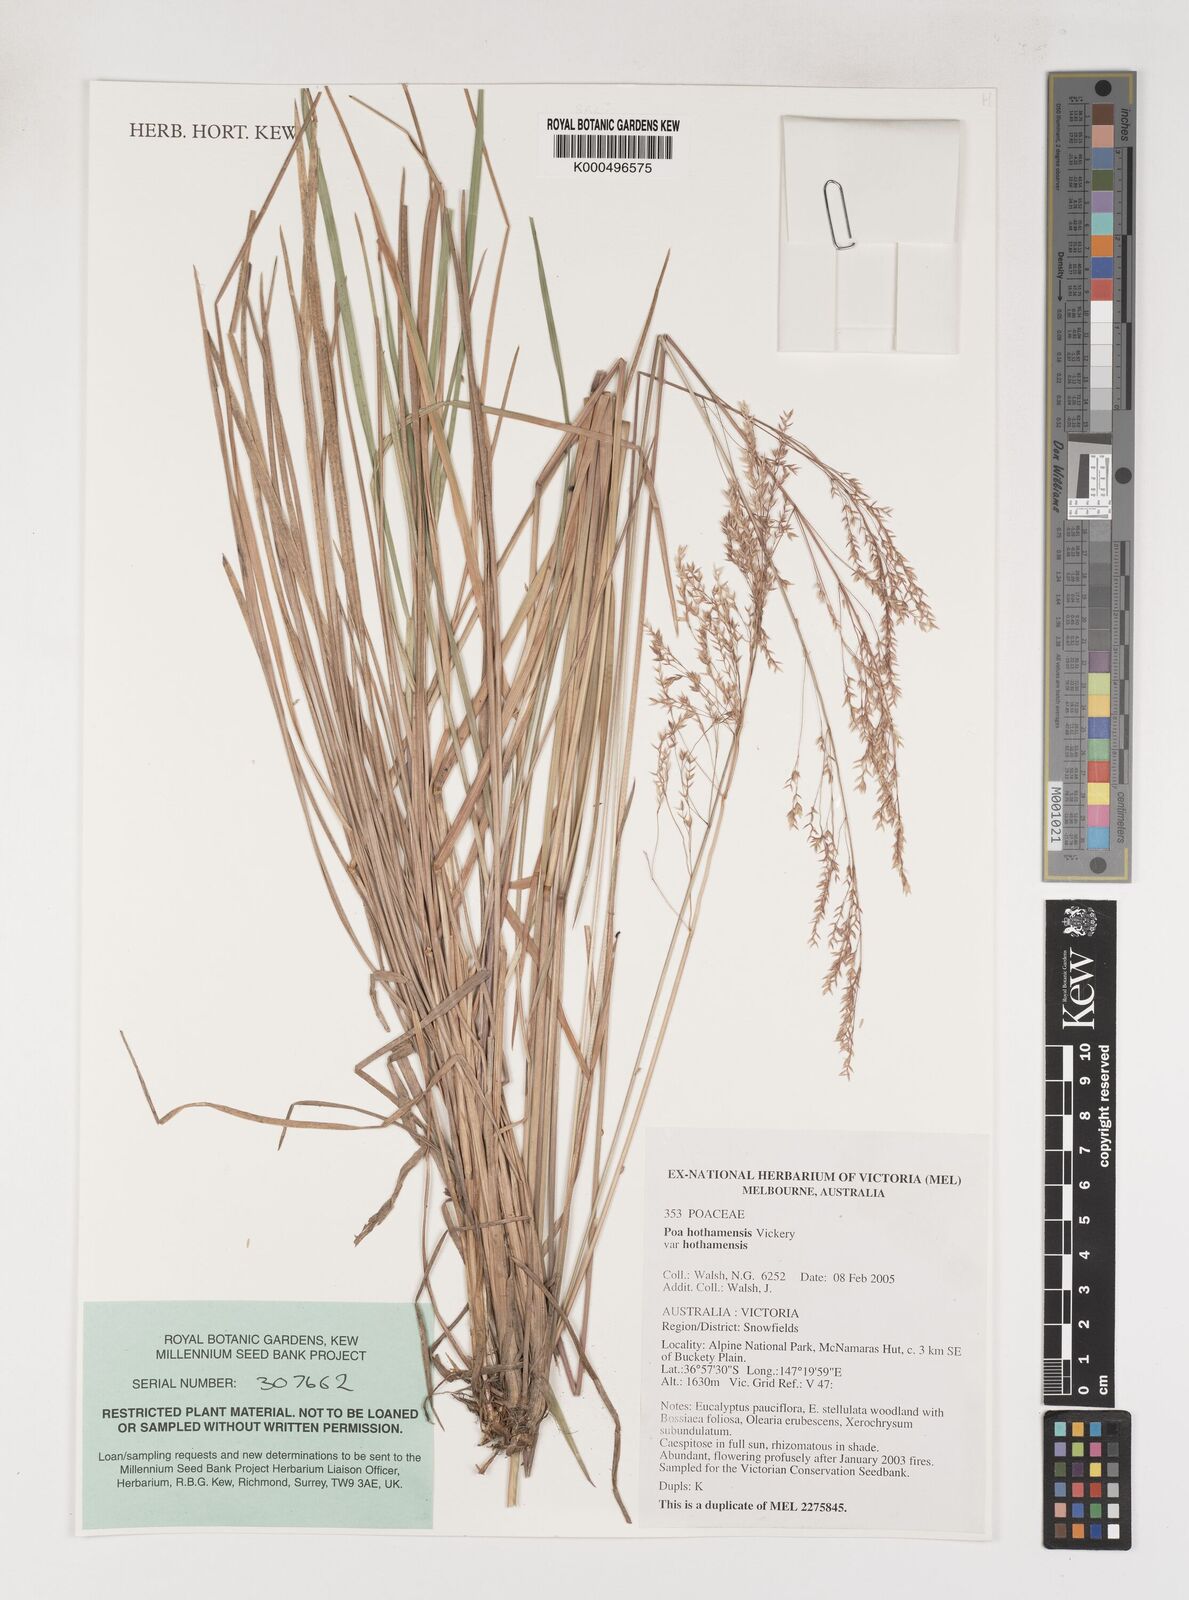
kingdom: Plantae
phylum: Tracheophyta
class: Liliopsida
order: Poales
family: Poaceae
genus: Poa
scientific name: Poa hothamensis
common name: Ledge grass
